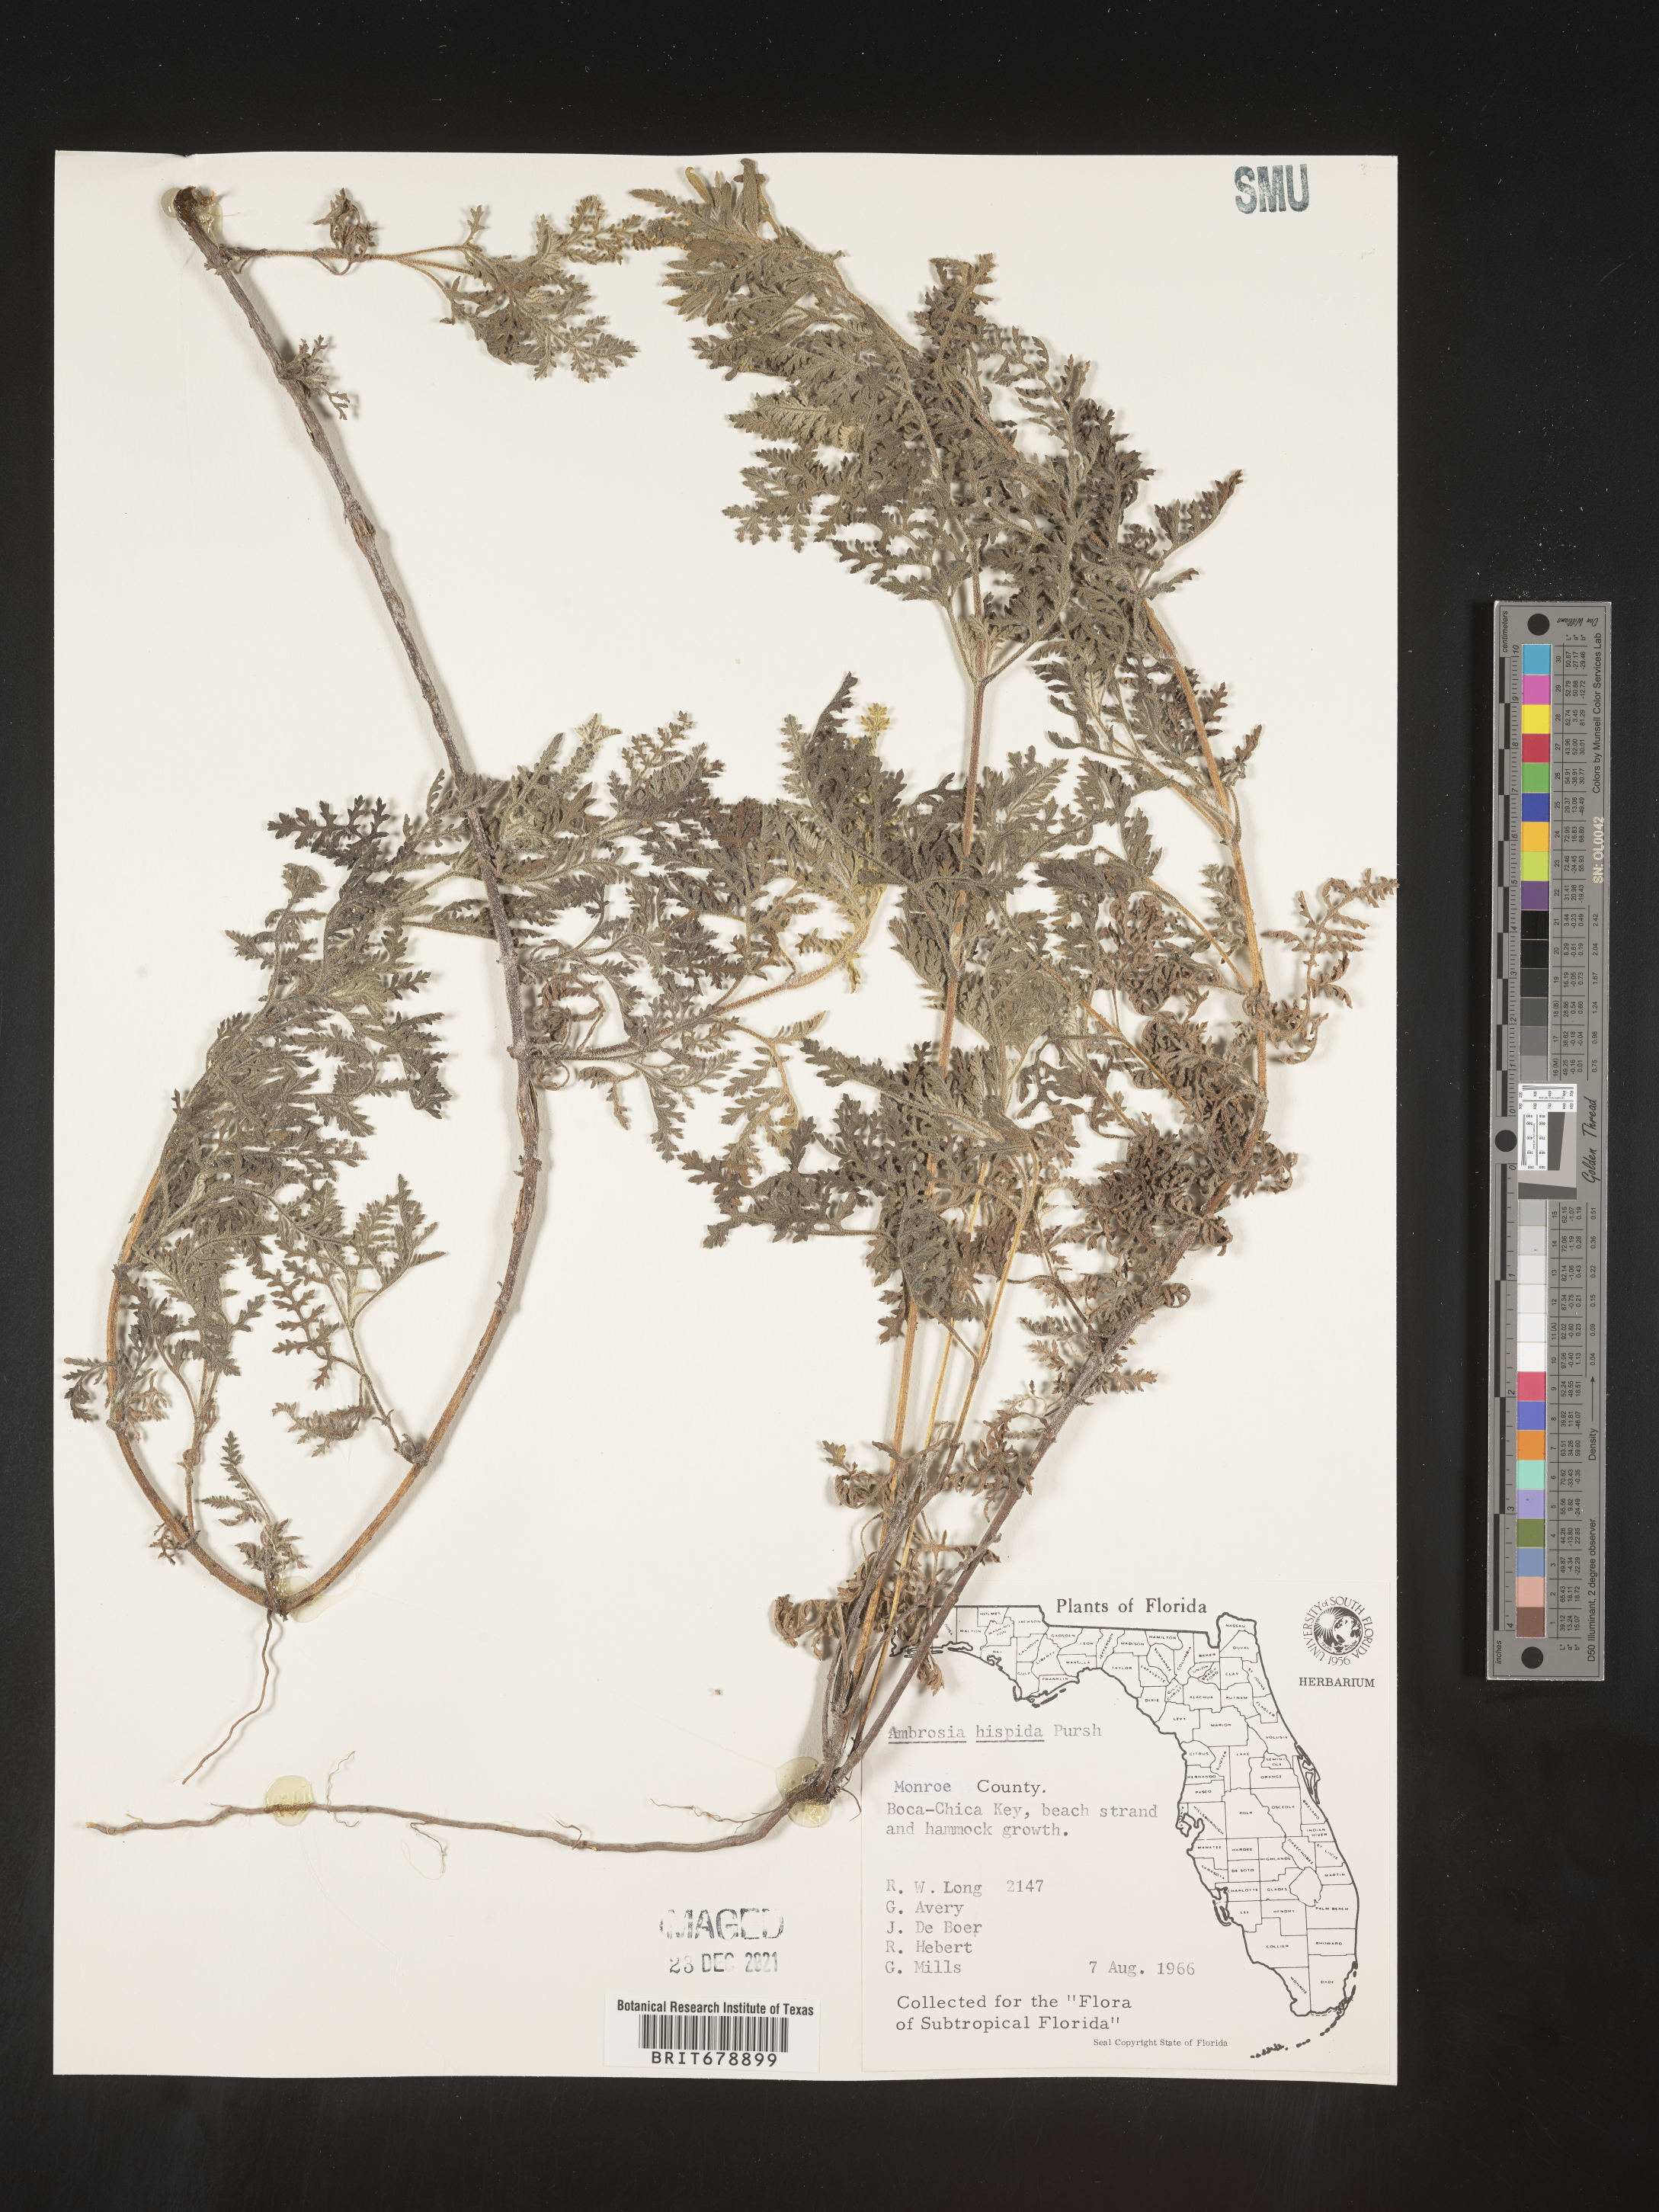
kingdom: Plantae
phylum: Tracheophyta
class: Magnoliopsida
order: Asterales
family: Asteraceae
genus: Ambrosia
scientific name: Ambrosia hispida
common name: Coastal ragweed
